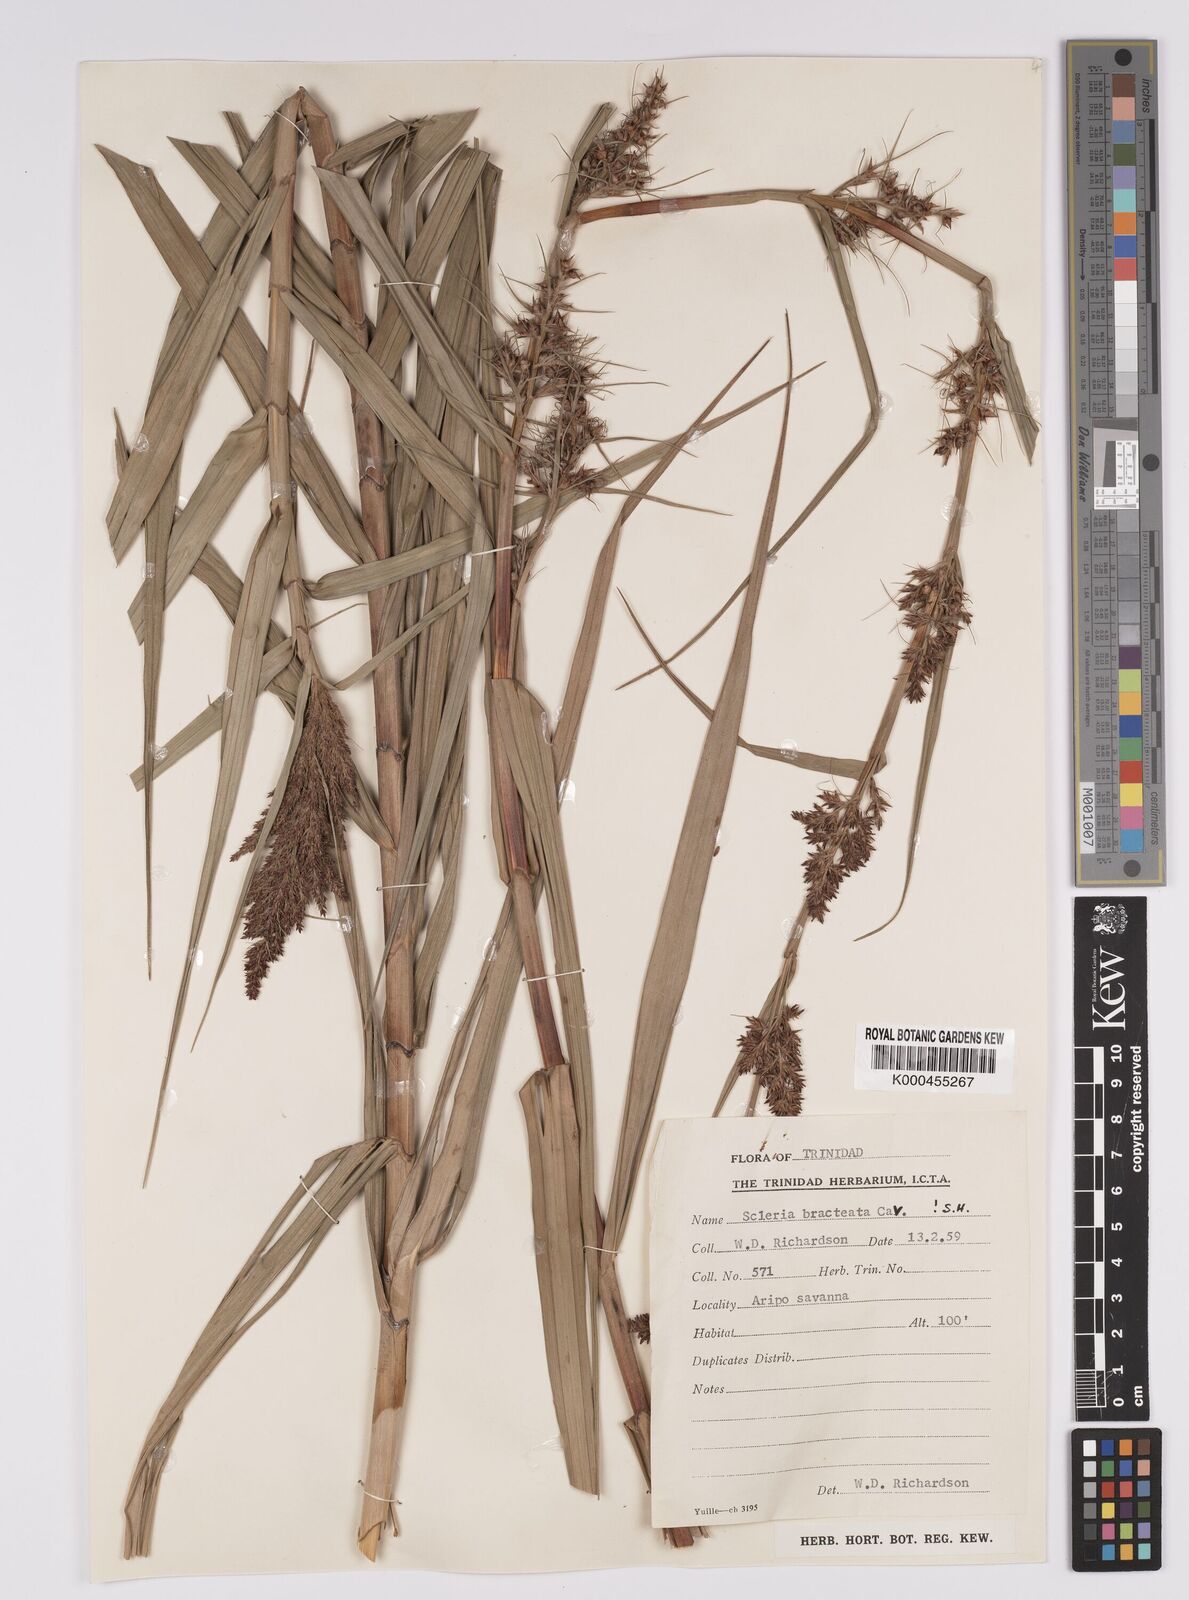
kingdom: Plantae
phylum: Tracheophyta
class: Liliopsida
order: Poales
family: Cyperaceae
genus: Scleria
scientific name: Scleria bracteata
